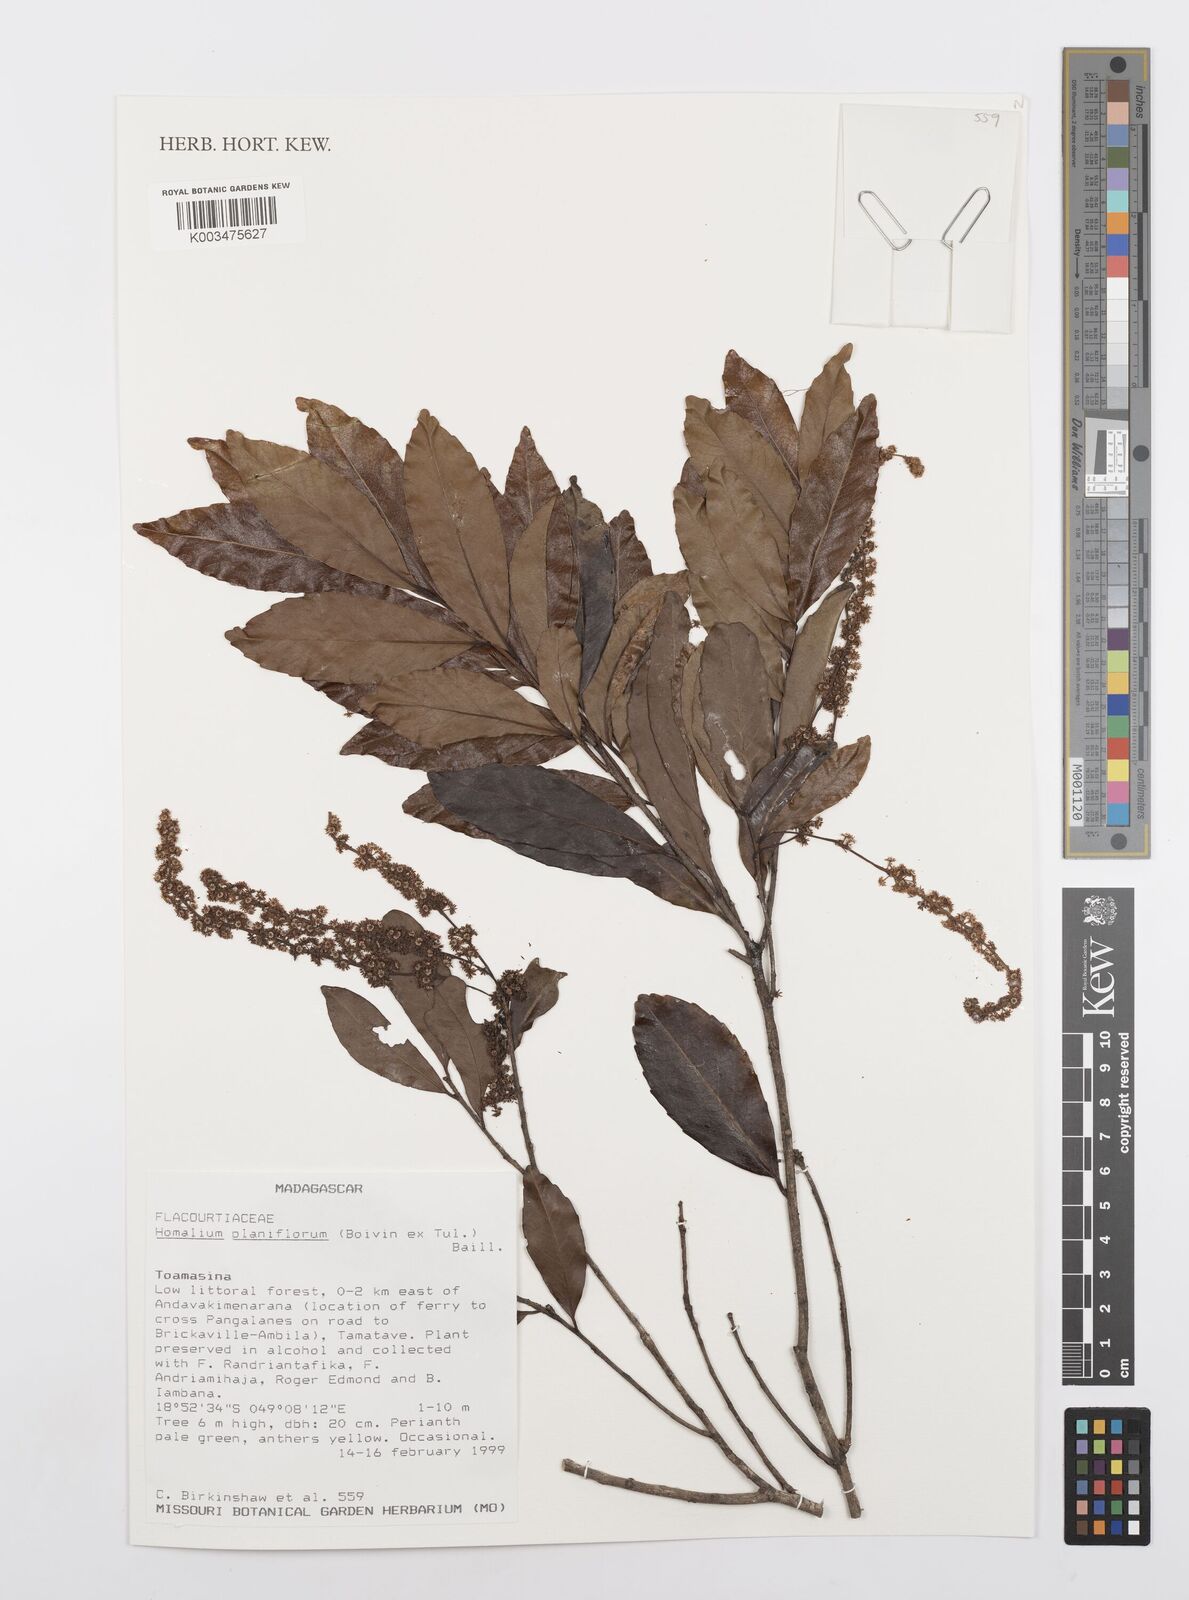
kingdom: Plantae
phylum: Tracheophyta
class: Magnoliopsida
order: Malpighiales
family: Salicaceae
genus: Homalium
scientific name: Homalium planiflorum
